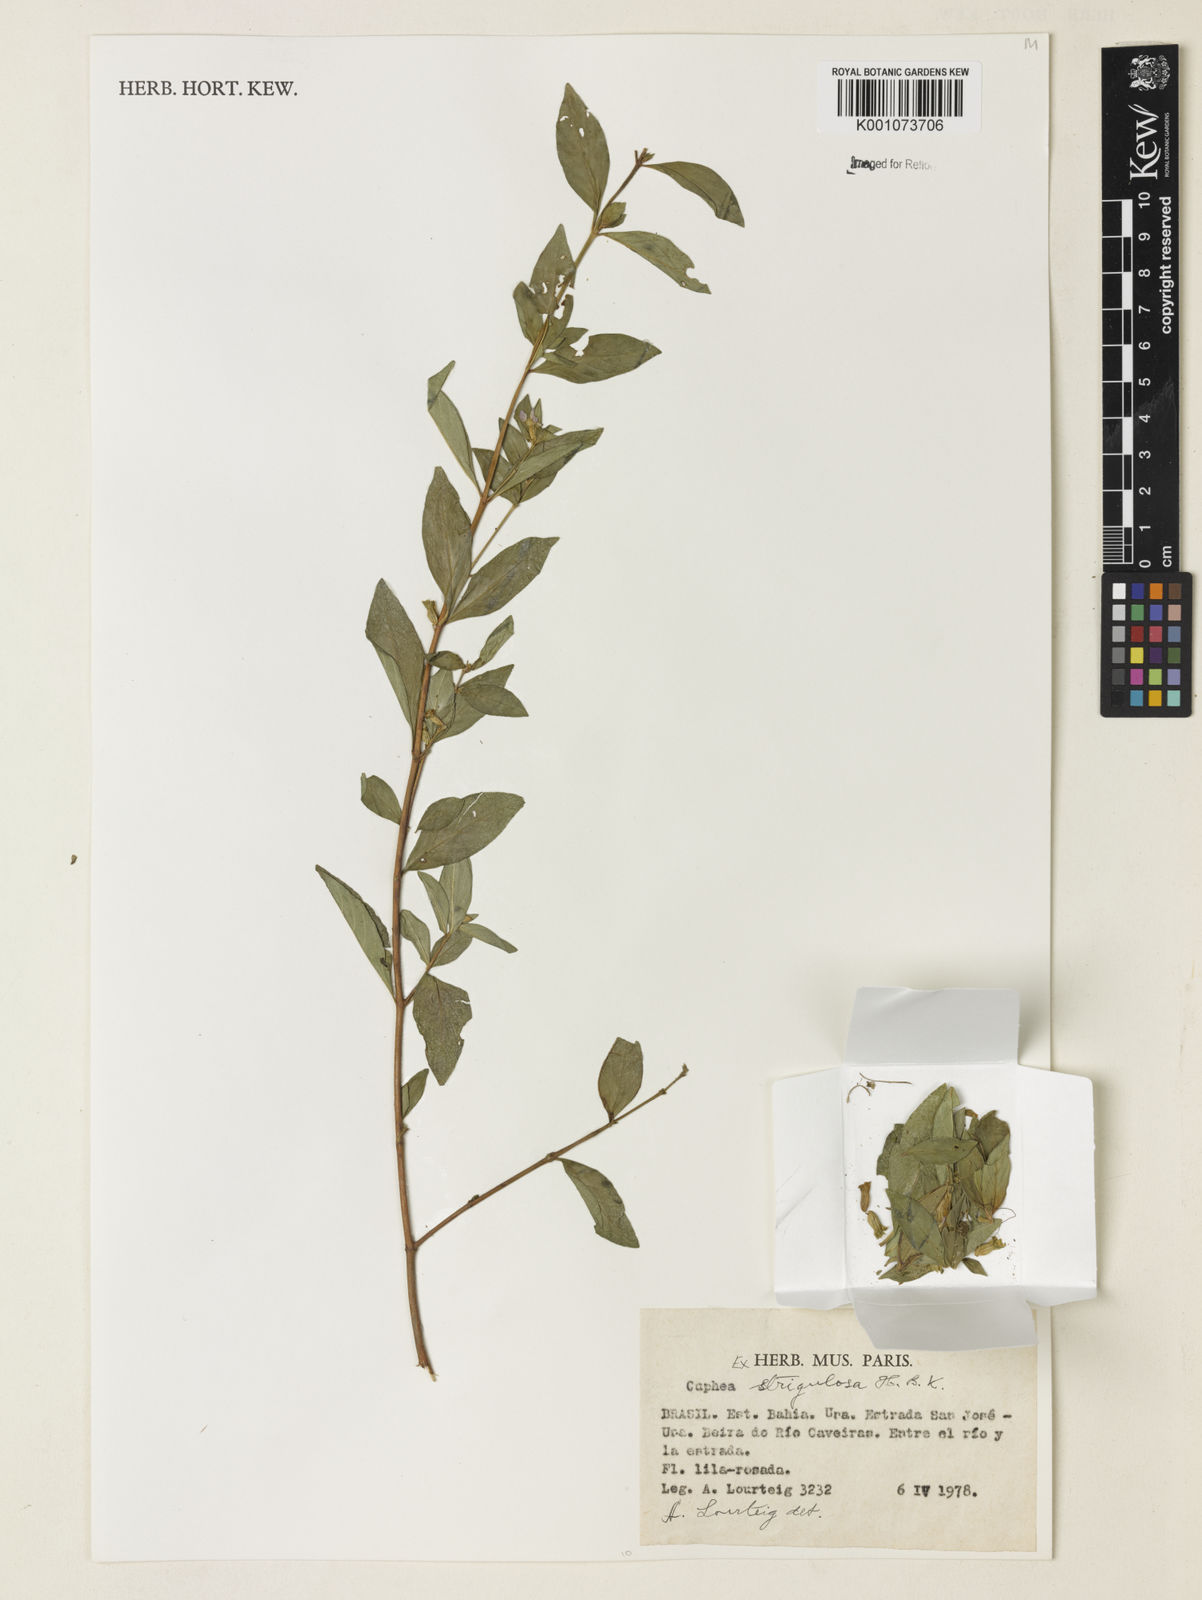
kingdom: Plantae
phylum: Tracheophyta
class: Magnoliopsida
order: Myrtales
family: Lythraceae
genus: Cuphea
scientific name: Cuphea strigulosa
